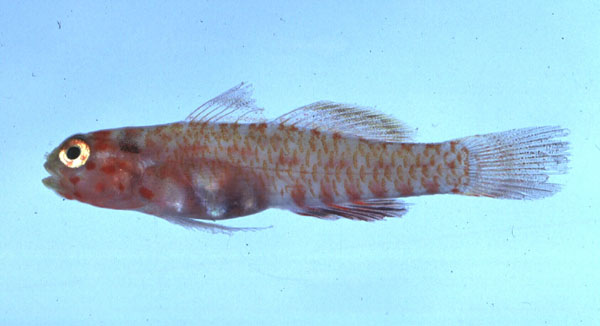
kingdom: Animalia
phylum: Chordata
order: Perciformes
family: Gobiidae
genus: Eviota
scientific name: Eviota melasma
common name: Melasma pygmy goby
